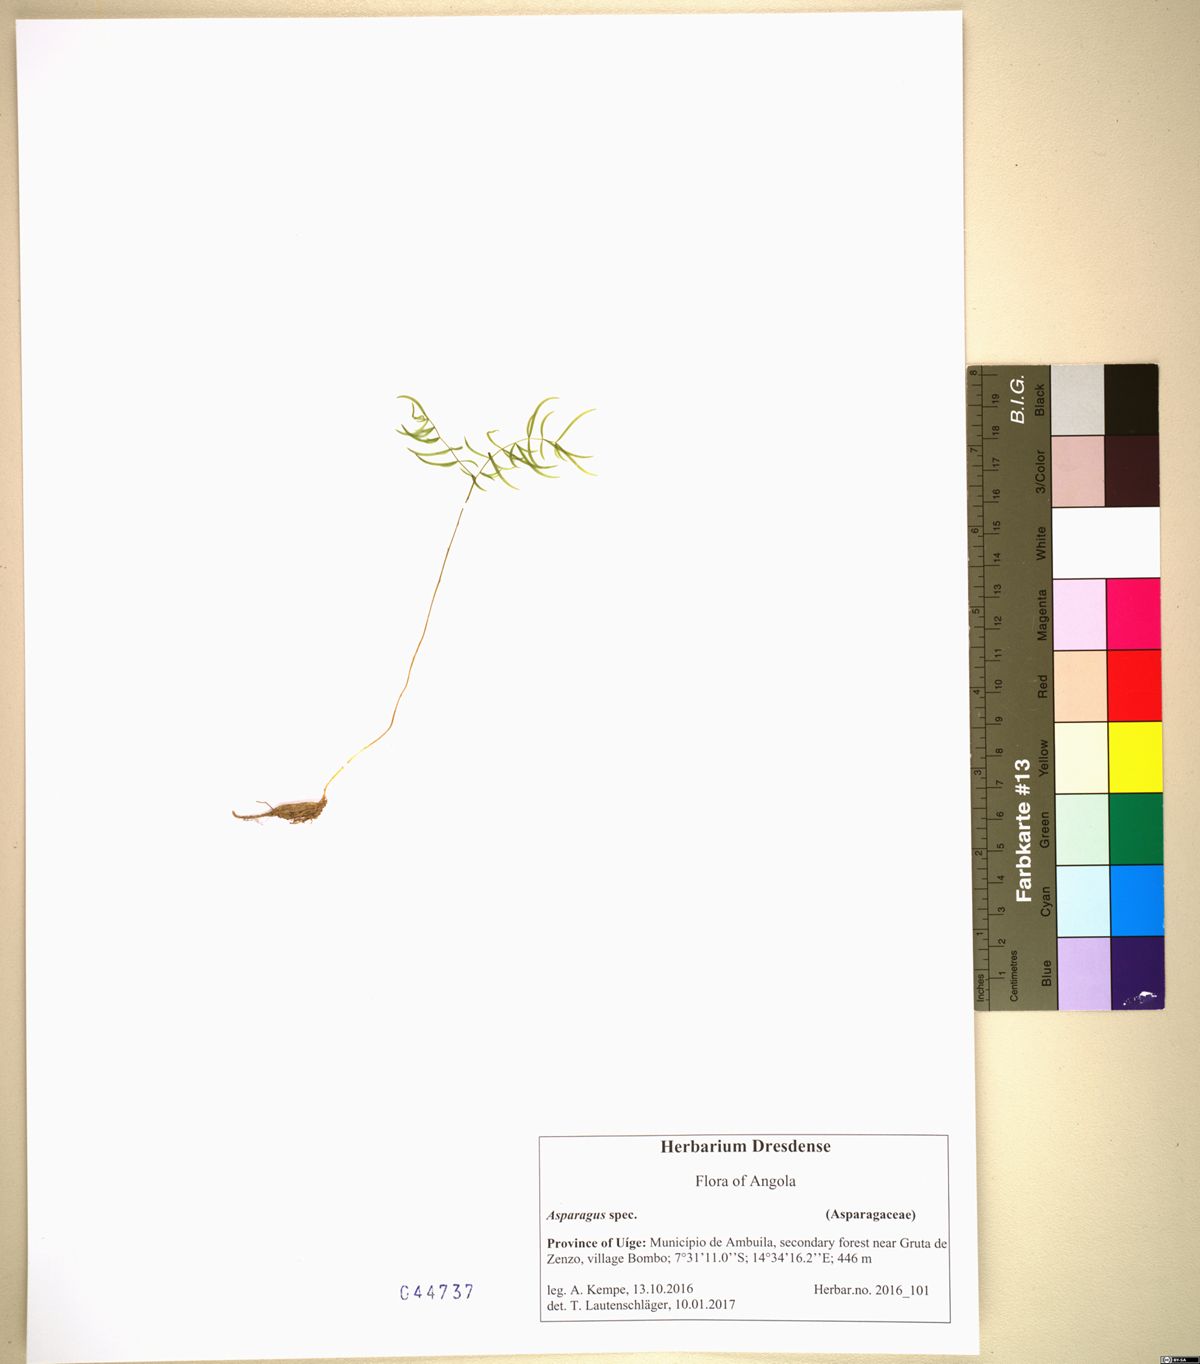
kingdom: Plantae
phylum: Tracheophyta
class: Liliopsida
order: Asparagales
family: Asparagaceae
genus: Asparagus
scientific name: Asparagus drepanophyllus
